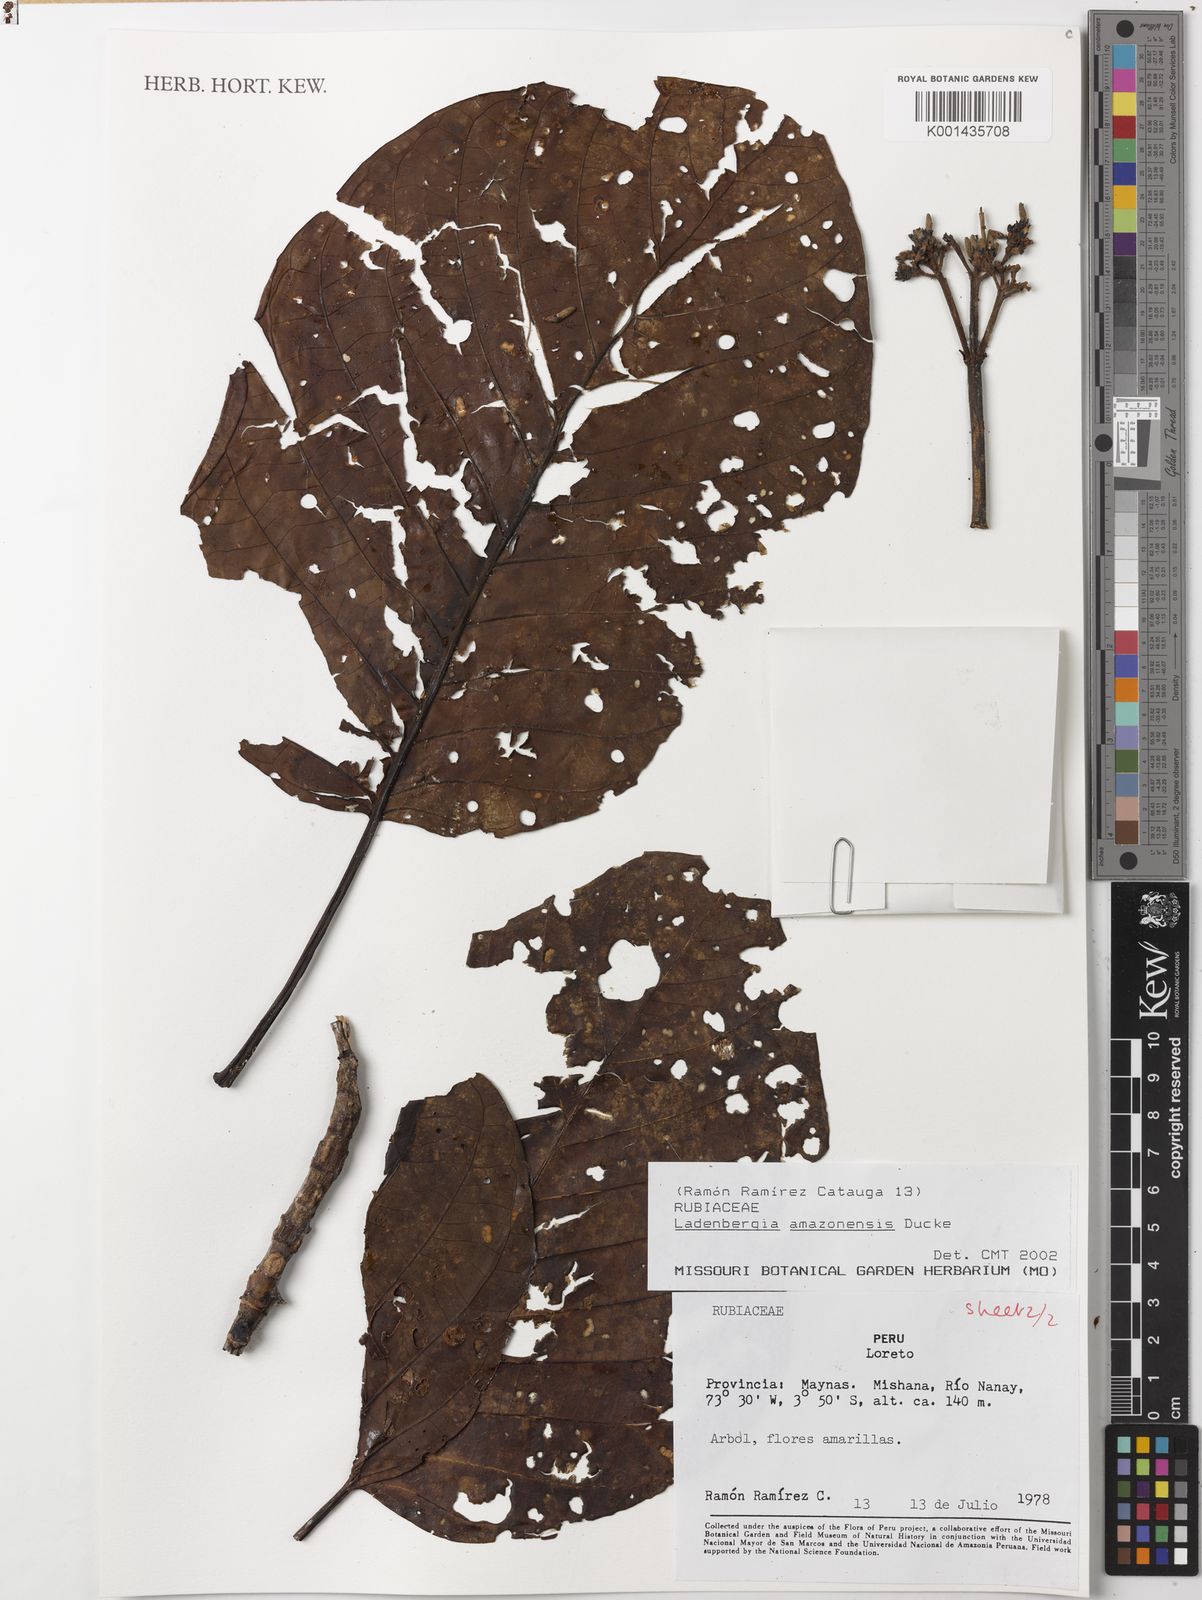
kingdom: Plantae
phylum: Tracheophyta
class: Magnoliopsida
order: Gentianales
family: Rubiaceae
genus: Ladenbergia
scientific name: Ladenbergia amazonensis
